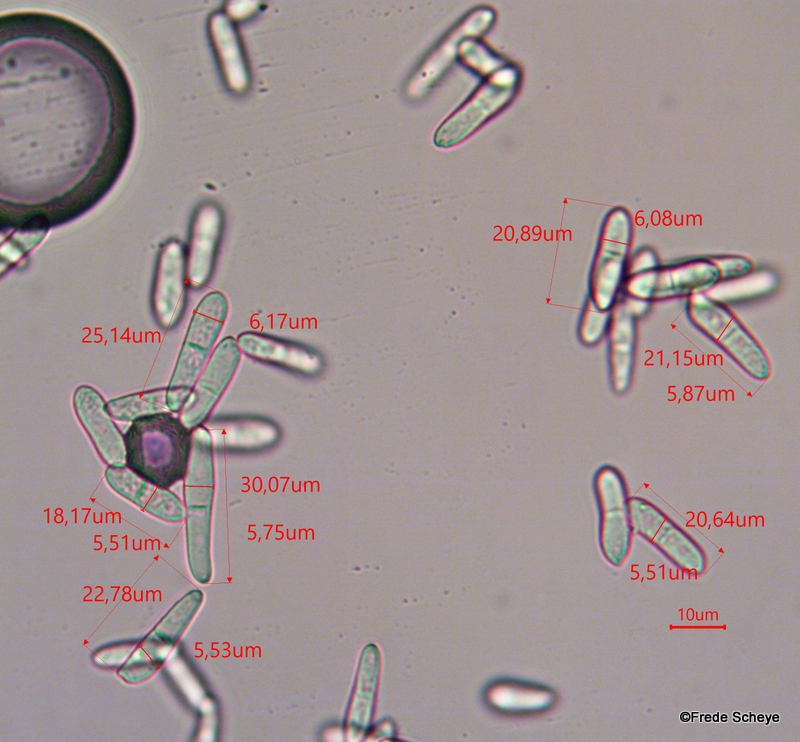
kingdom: Fungi
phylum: Ascomycota
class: Dothideomycetes
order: Mycosphaerellales
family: Mycosphaerellaceae
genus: Ramularia
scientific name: Ramularia geranii
